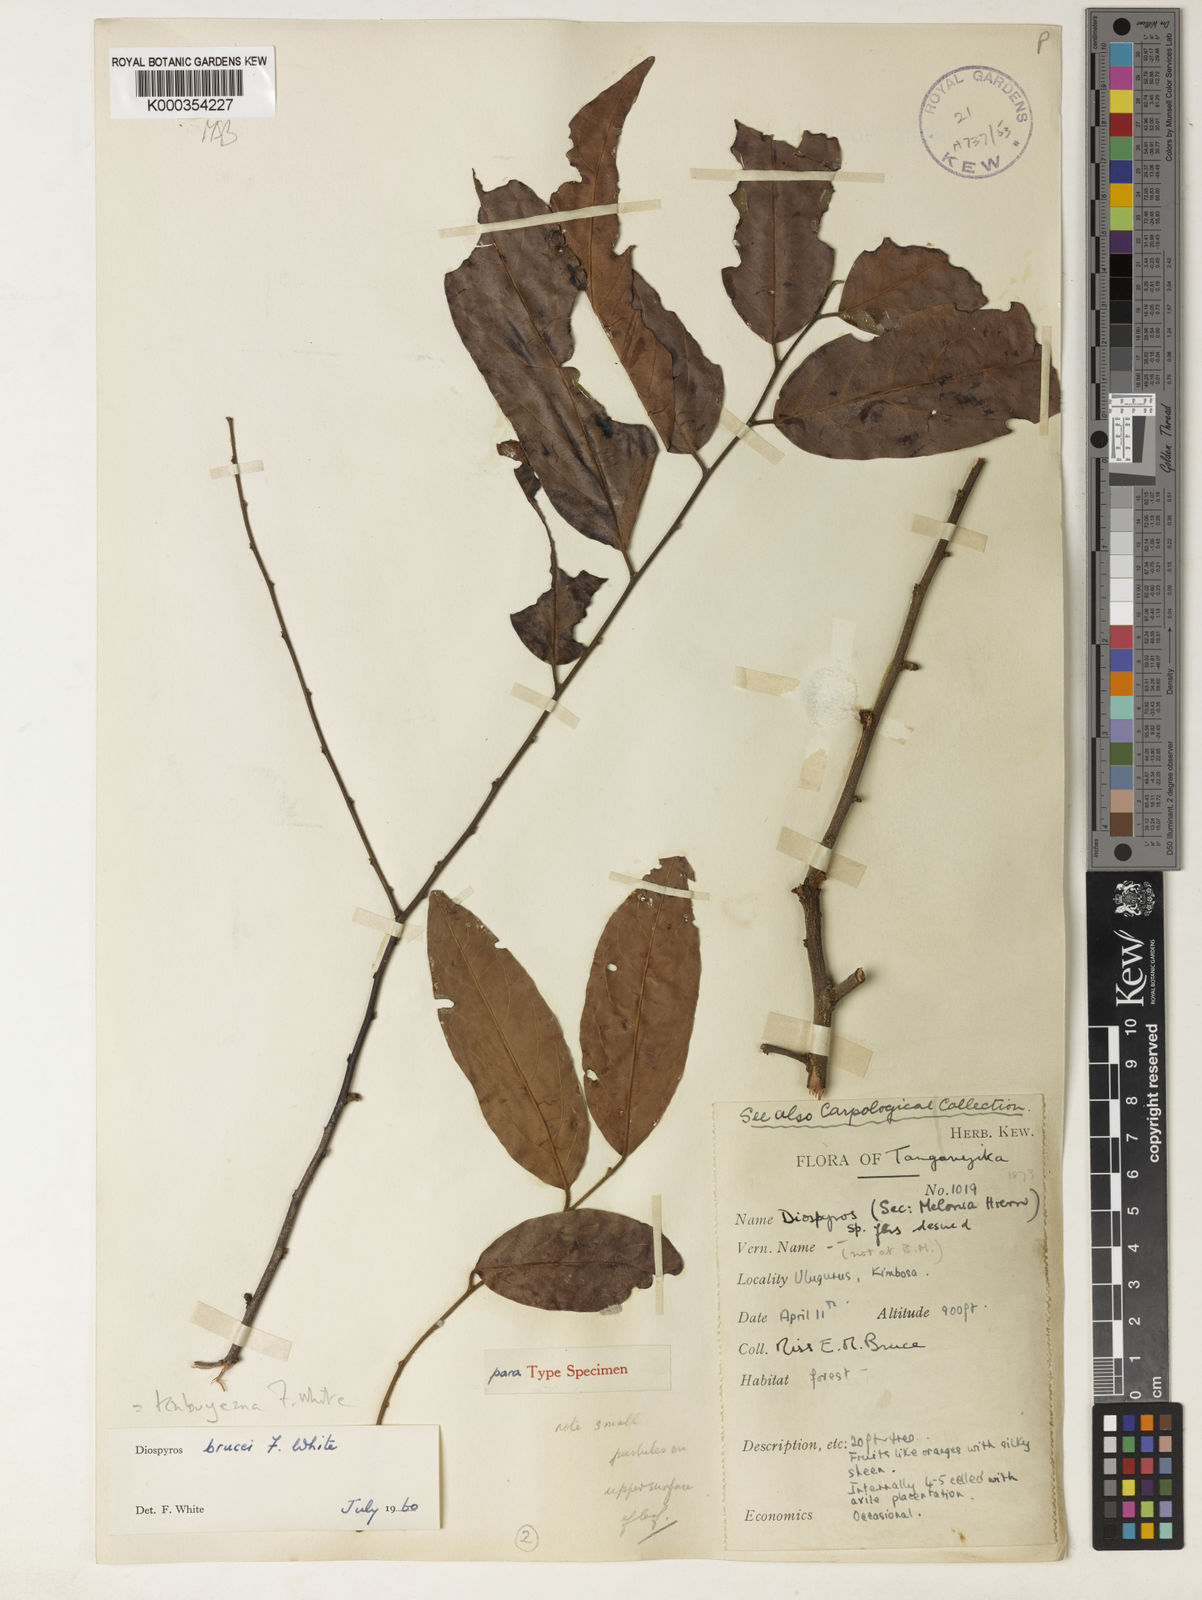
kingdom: Plantae
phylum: Tracheophyta
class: Magnoliopsida
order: Ericales
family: Ebenaceae
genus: Diospyros
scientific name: Diospyros kabuyeana
